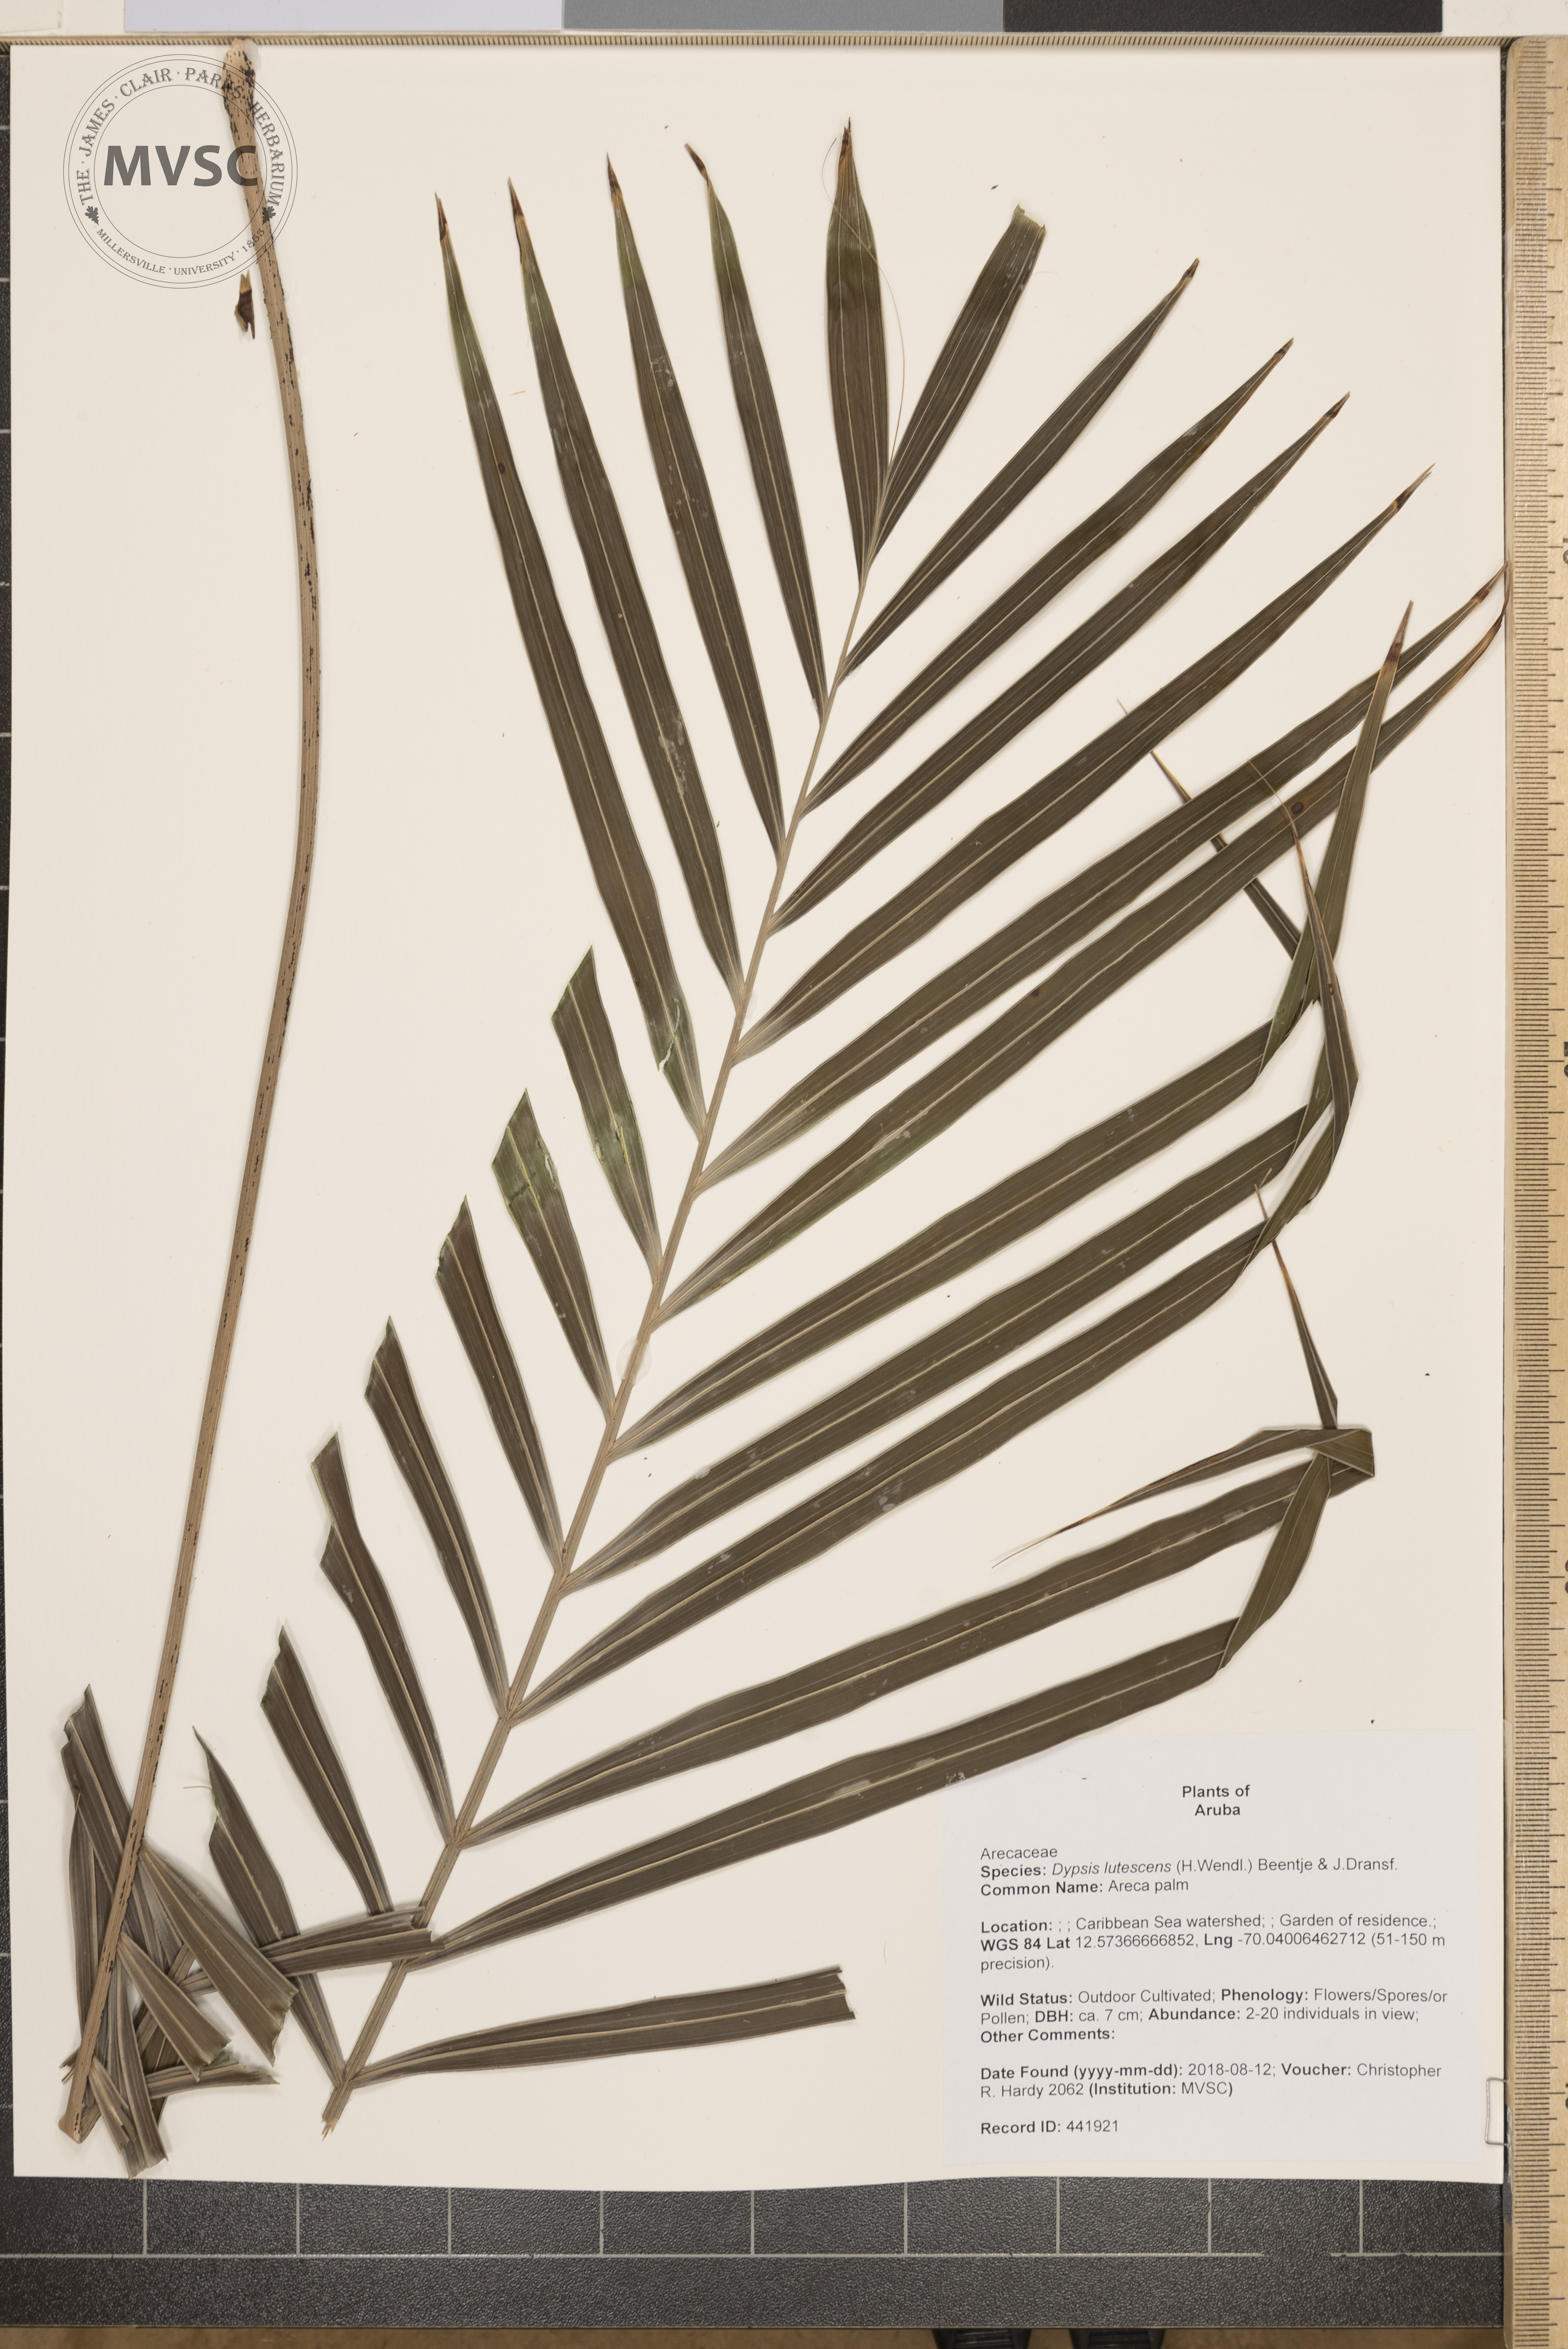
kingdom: Plantae
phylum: Tracheophyta
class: Liliopsida
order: Arecales
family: Arecaceae
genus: Dypsis
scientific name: Dypsis lutescens
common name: Areca palm
